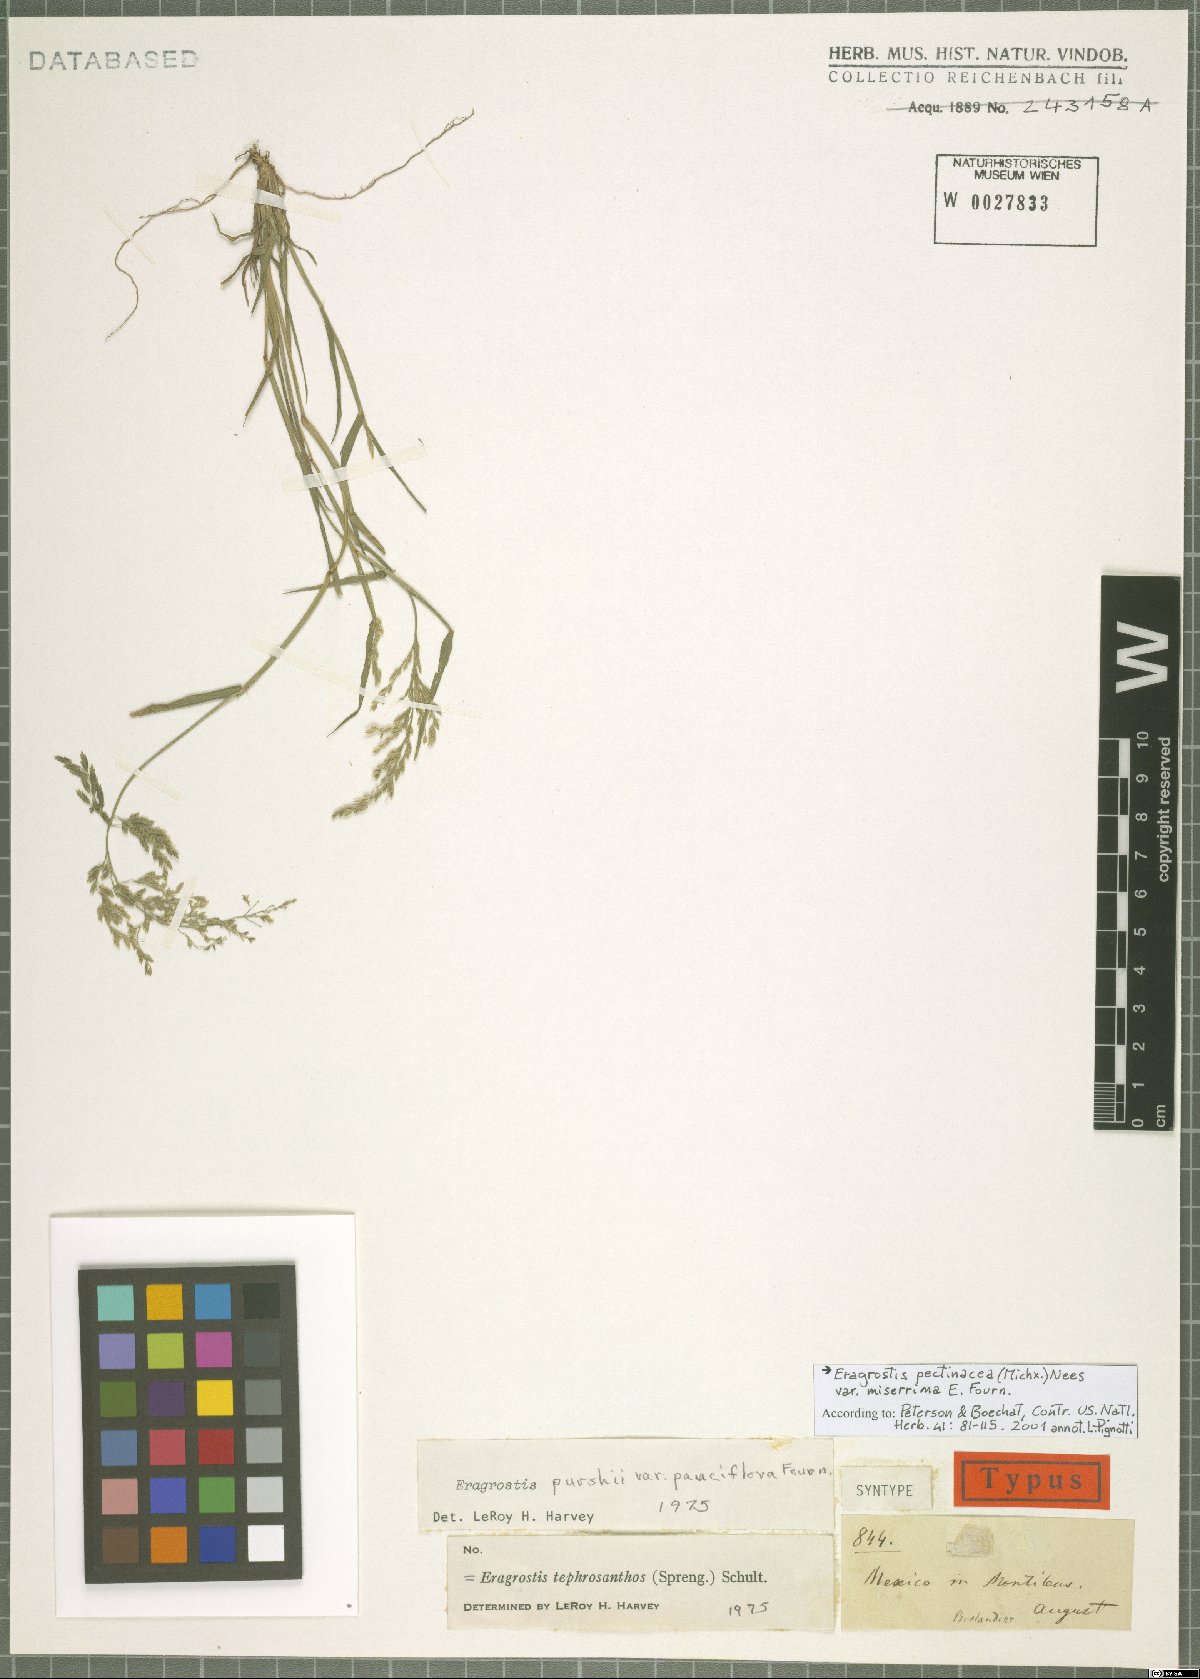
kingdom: Plantae
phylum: Tracheophyta
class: Liliopsida
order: Poales
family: Poaceae
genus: Eragrostis
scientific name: Eragrostis tephrosanthos
